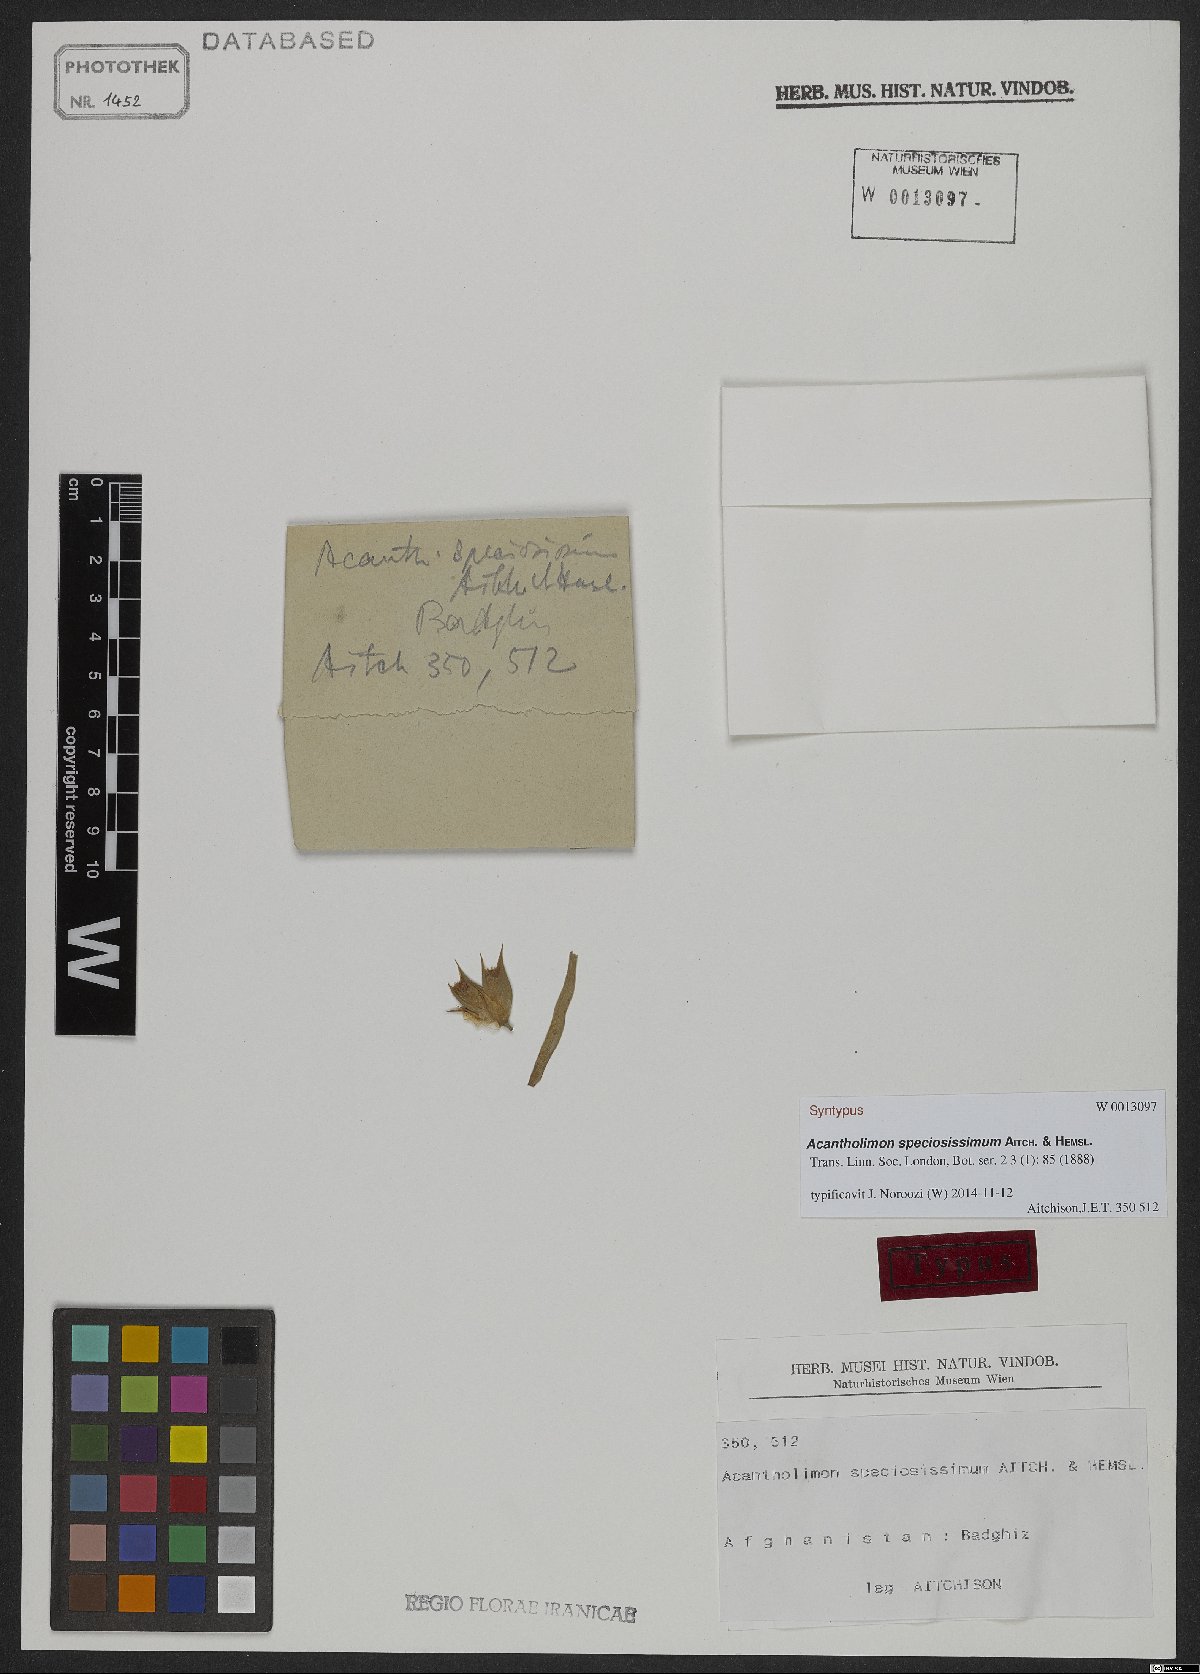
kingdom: Plantae
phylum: Tracheophyta
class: Magnoliopsida
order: Caryophyllales
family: Plumbaginaceae
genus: Acantholimon
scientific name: Acantholimon speciosissimum
